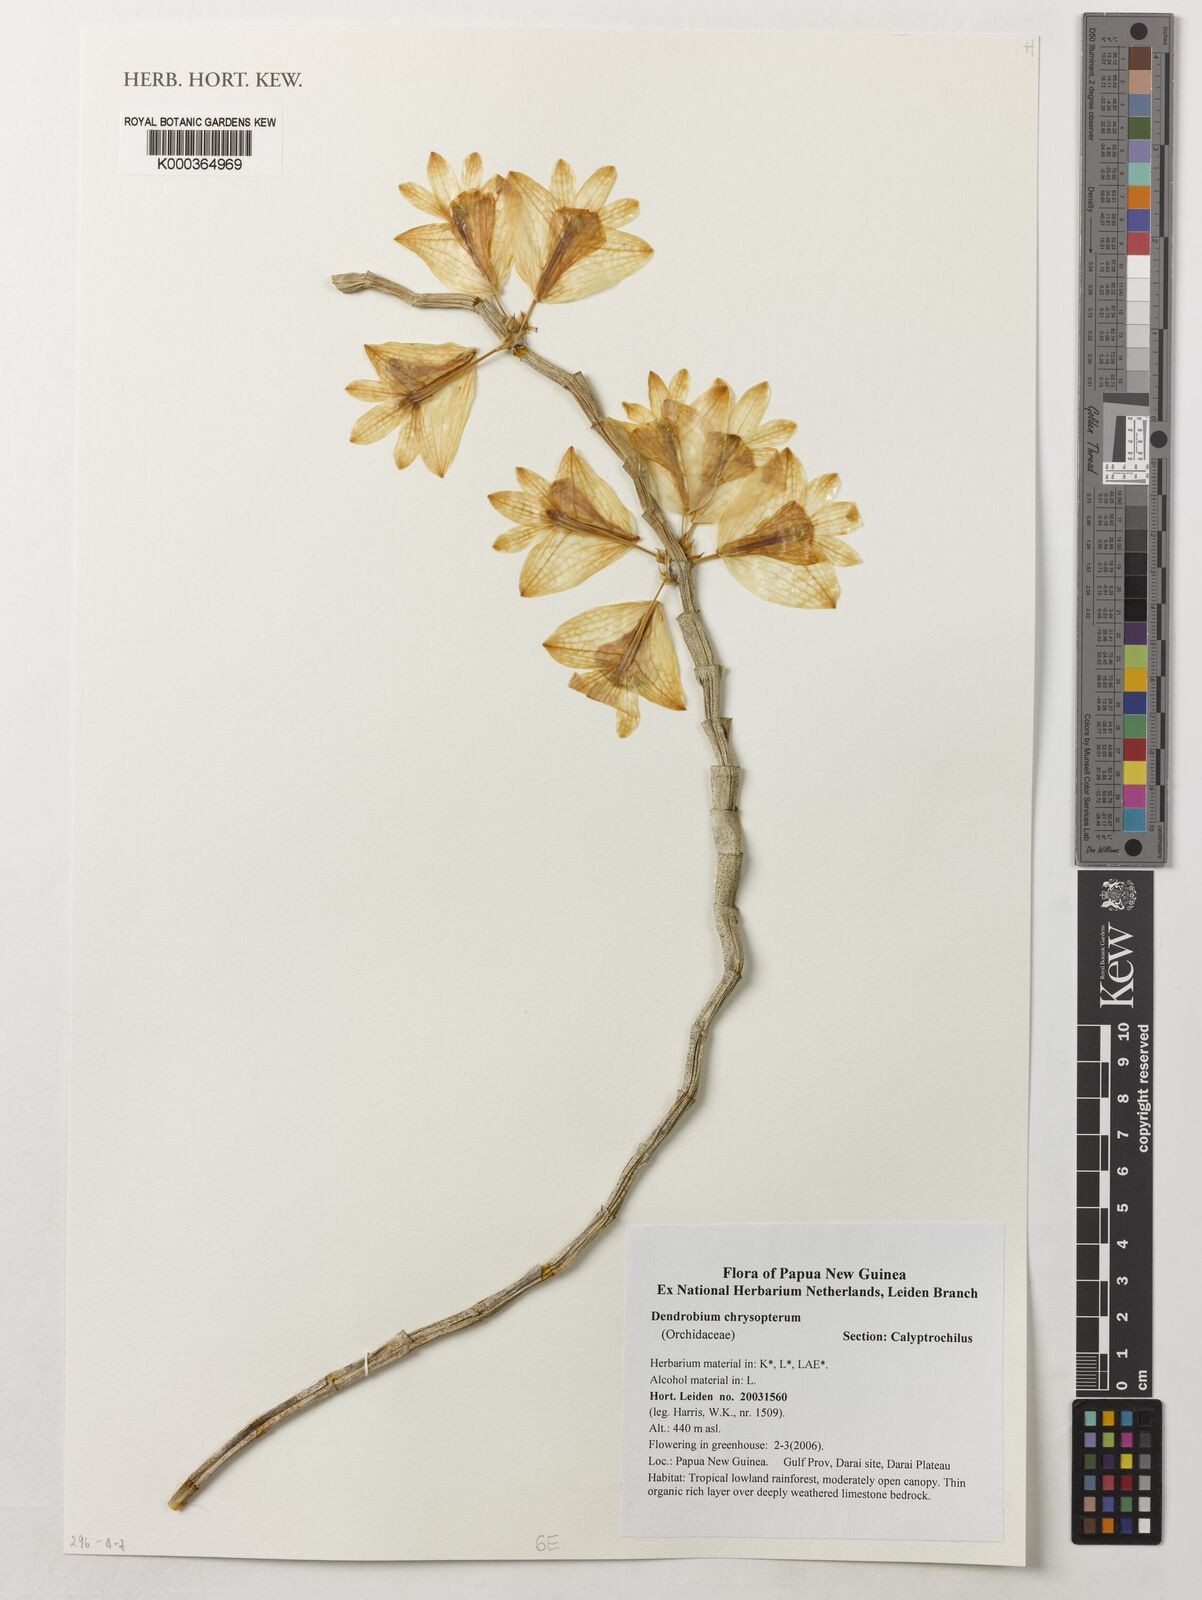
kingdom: Plantae
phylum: Tracheophyta
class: Liliopsida
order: Asparagales
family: Orchidaceae
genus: Dendrobium
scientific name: Dendrobium chrysopterum
